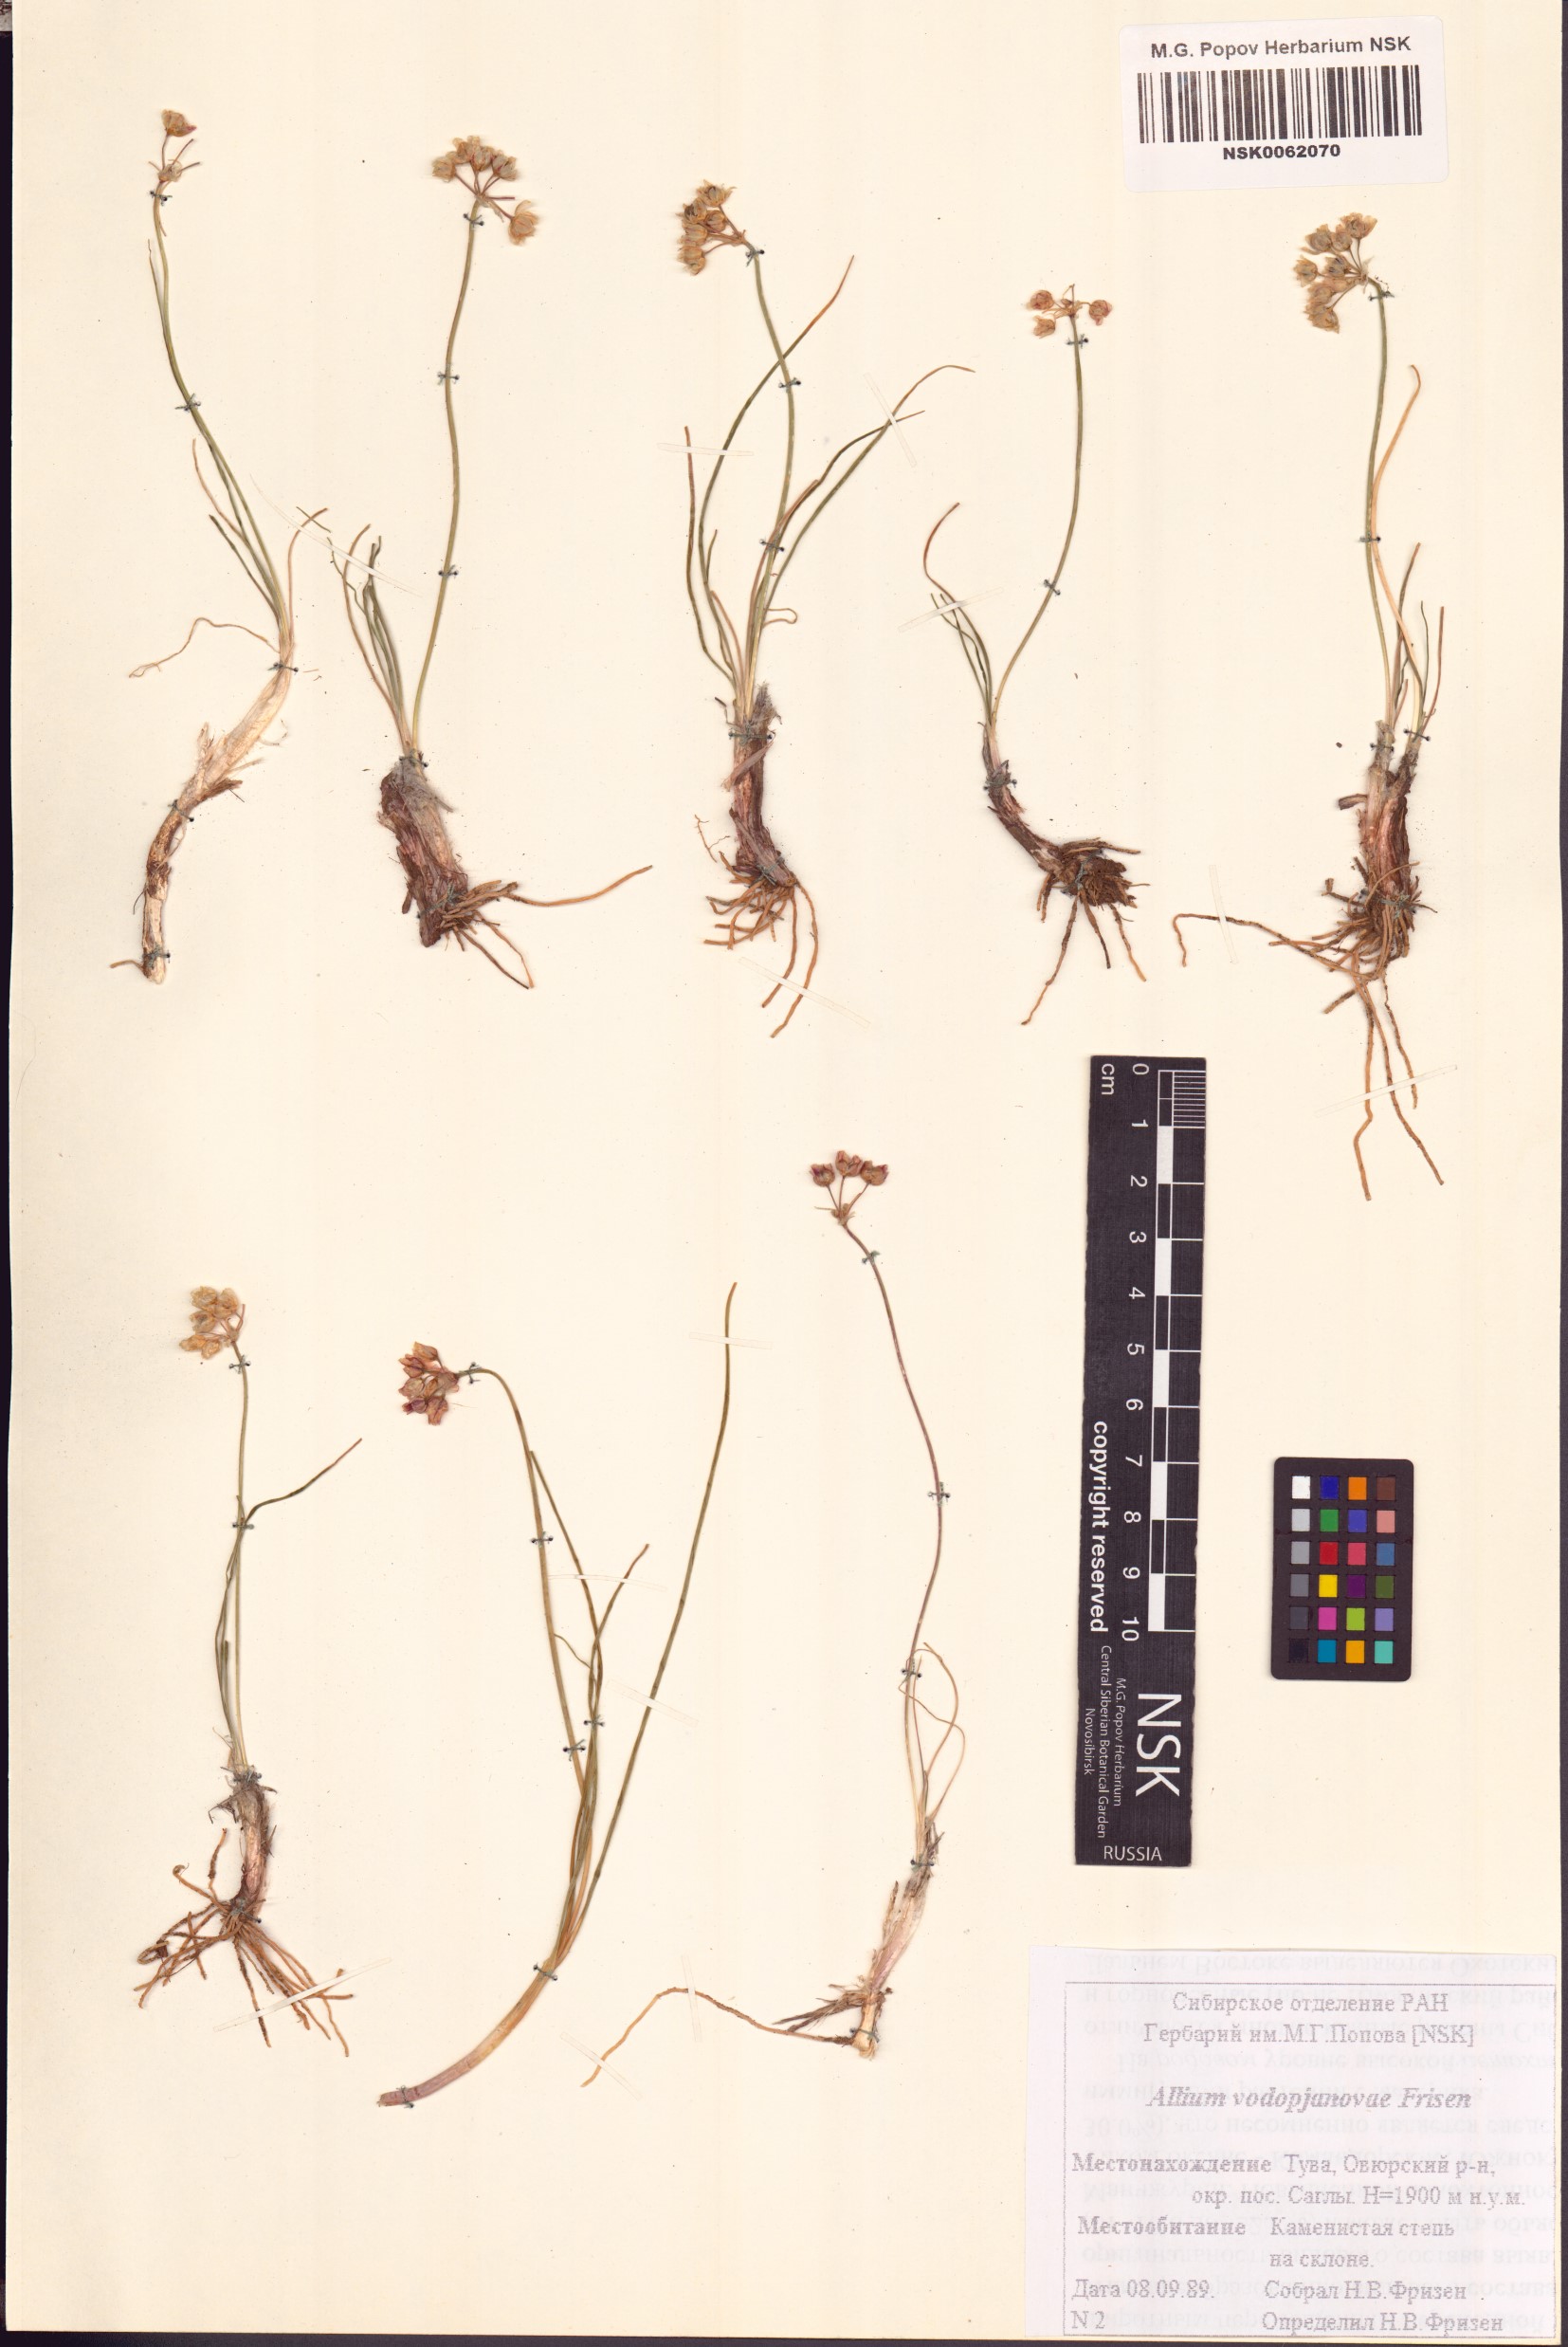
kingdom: Plantae
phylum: Tracheophyta
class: Liliopsida
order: Asparagales
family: Amaryllidaceae
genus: Allium
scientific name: Allium vodopjanovae
